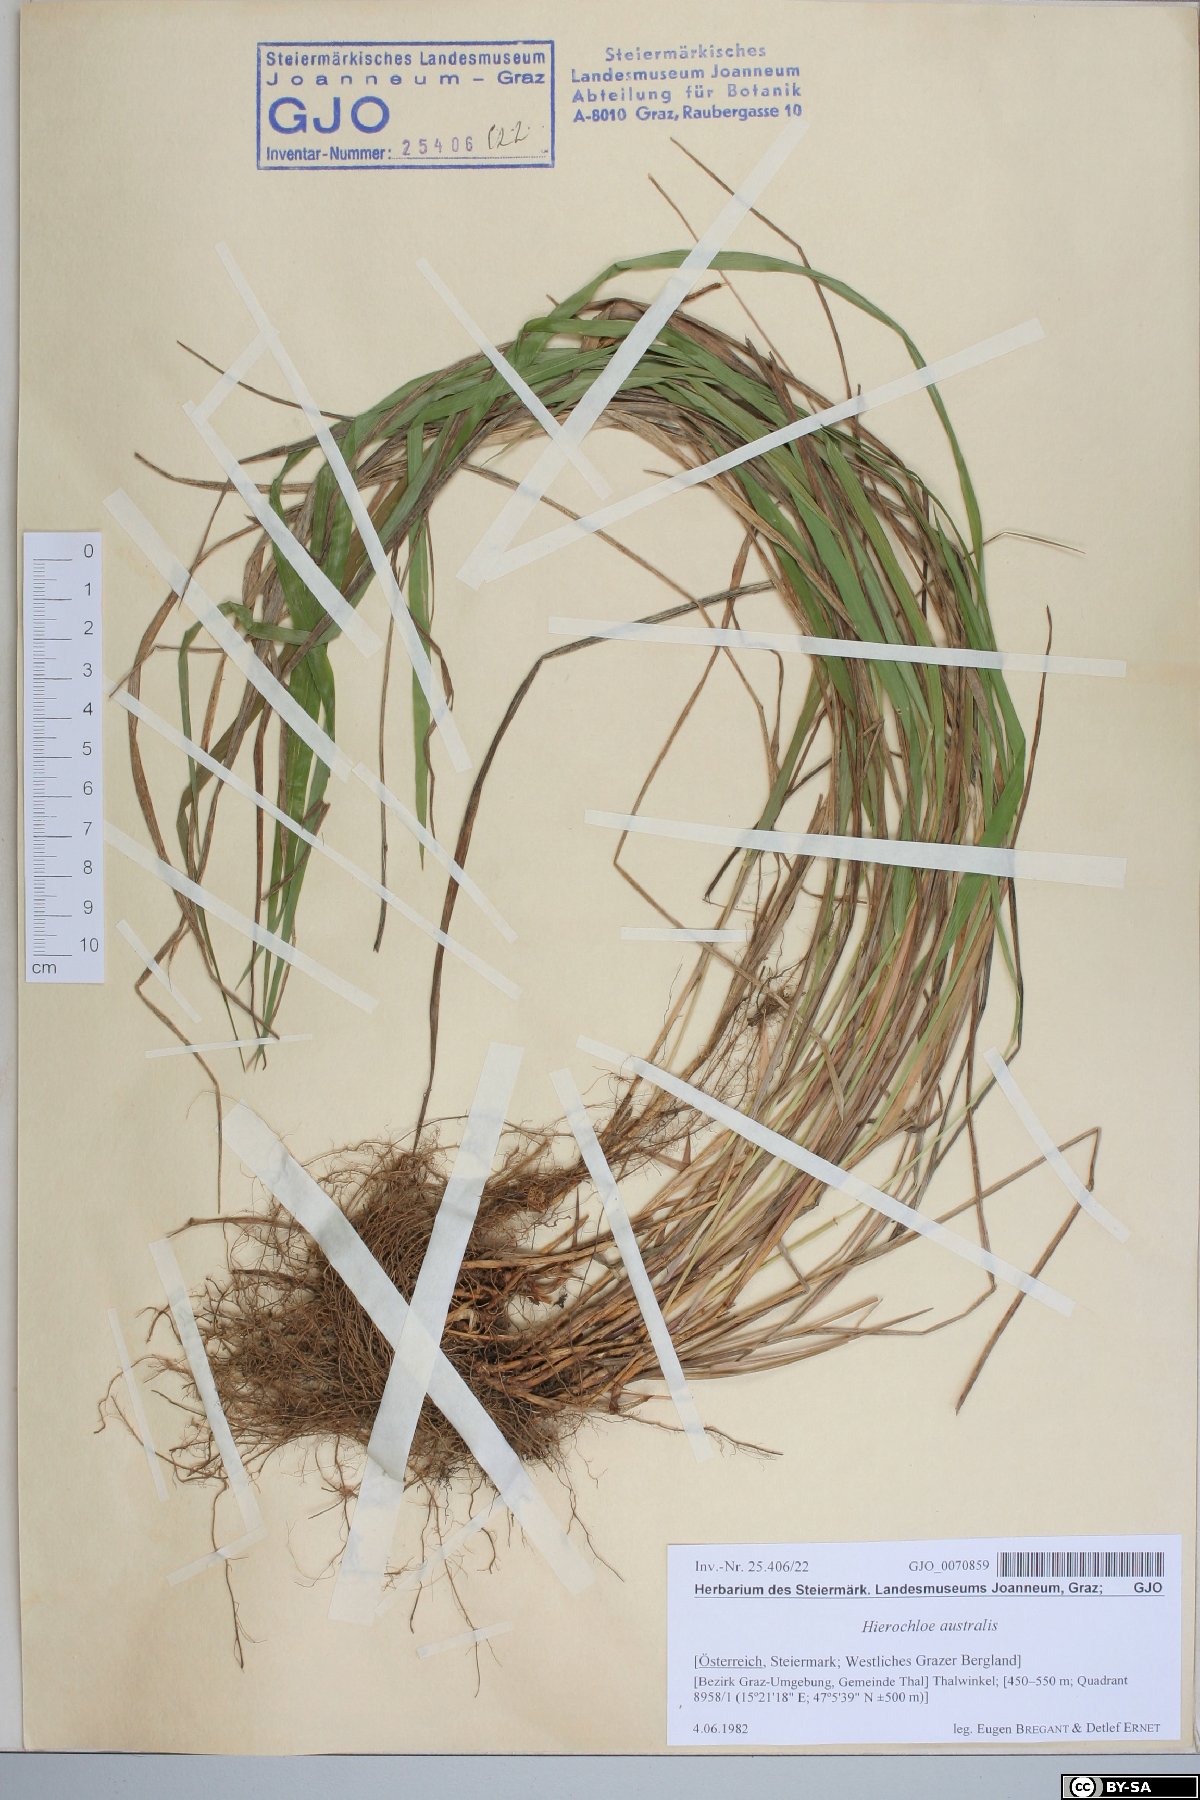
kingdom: Plantae
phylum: Tracheophyta
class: Liliopsida
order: Poales
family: Poaceae
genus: Anthoxanthum
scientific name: Anthoxanthum australe
